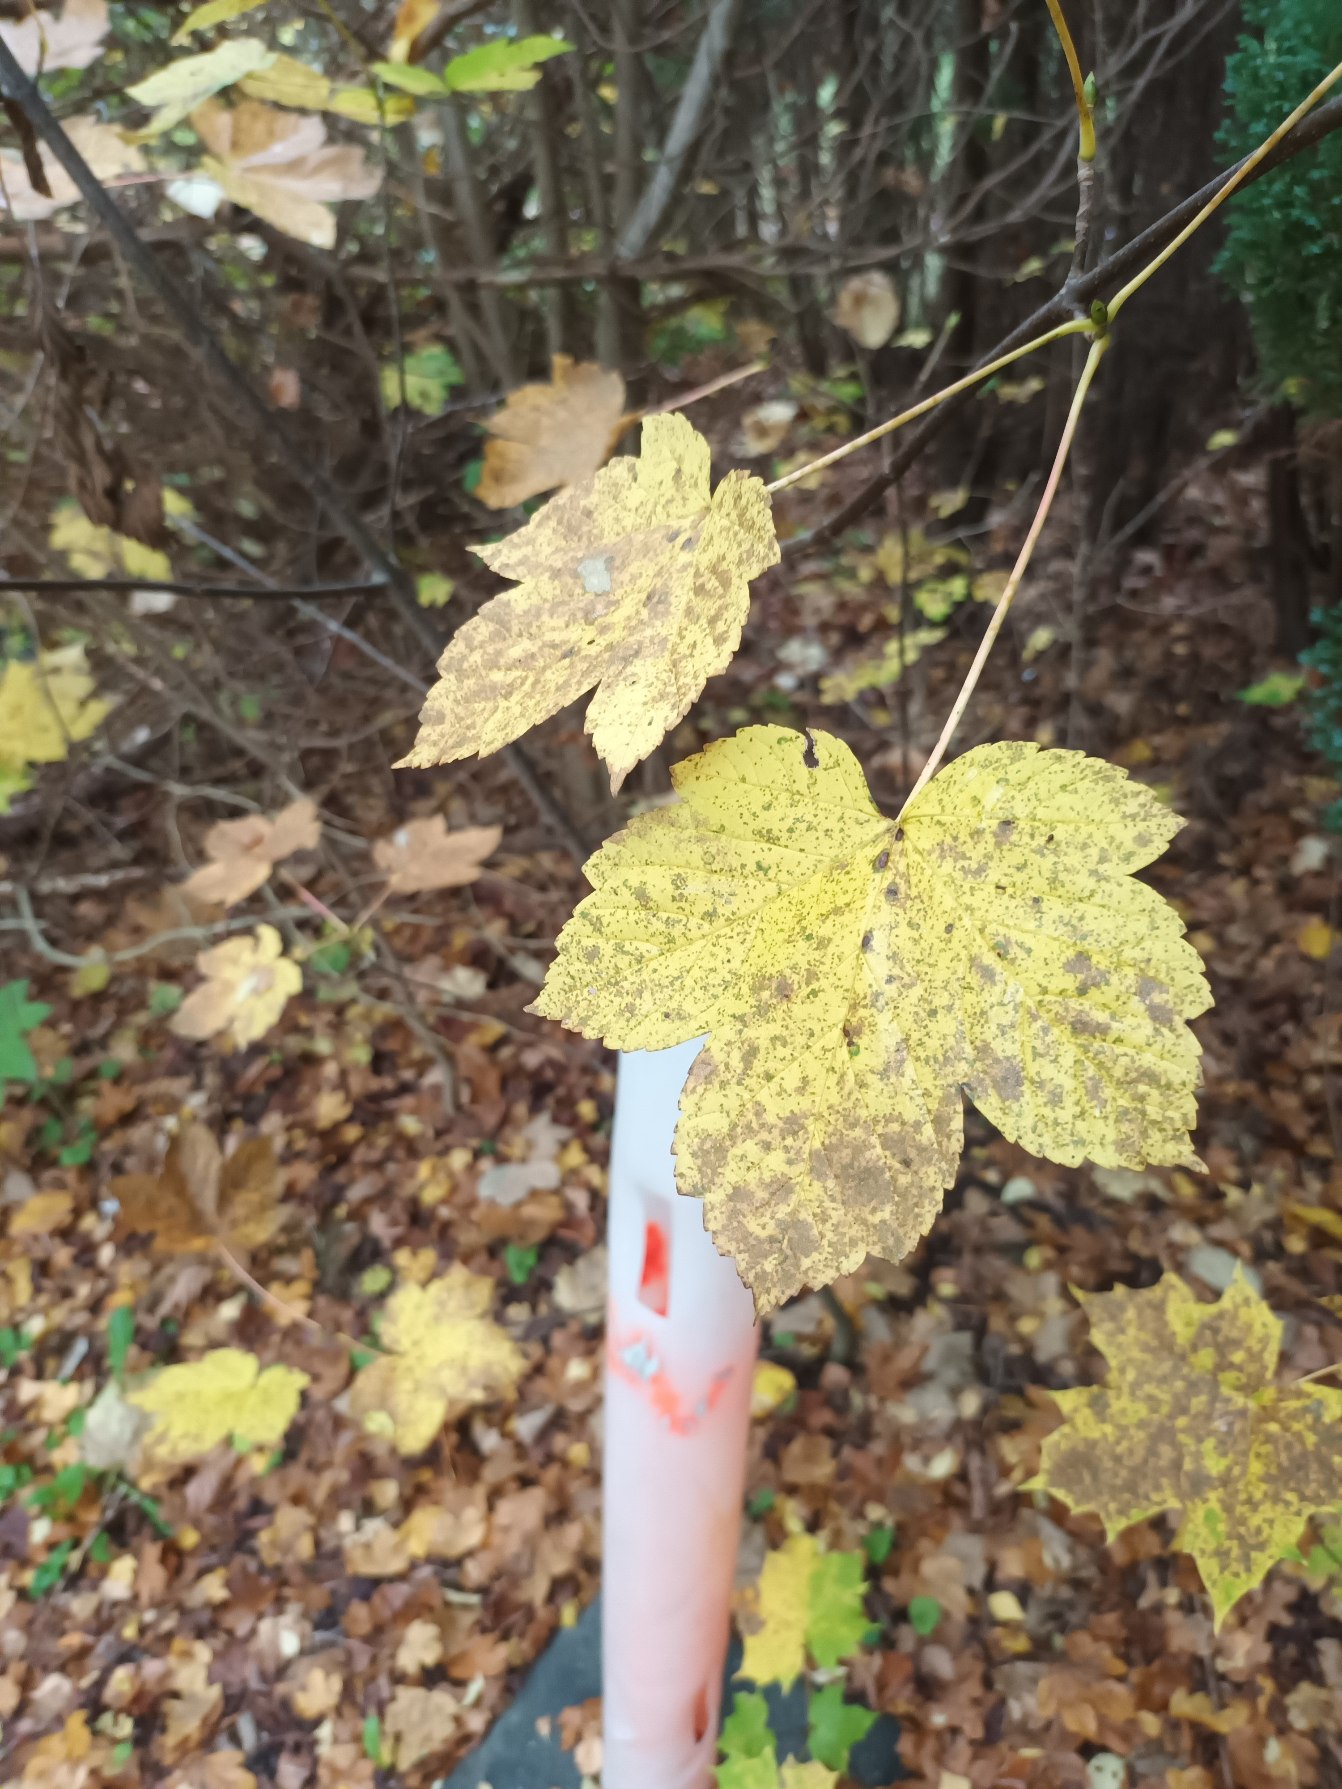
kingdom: Plantae
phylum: Tracheophyta
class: Magnoliopsida
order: Sapindales
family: Sapindaceae
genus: Acer
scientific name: Acer pseudoplatanus
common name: Ahorn
